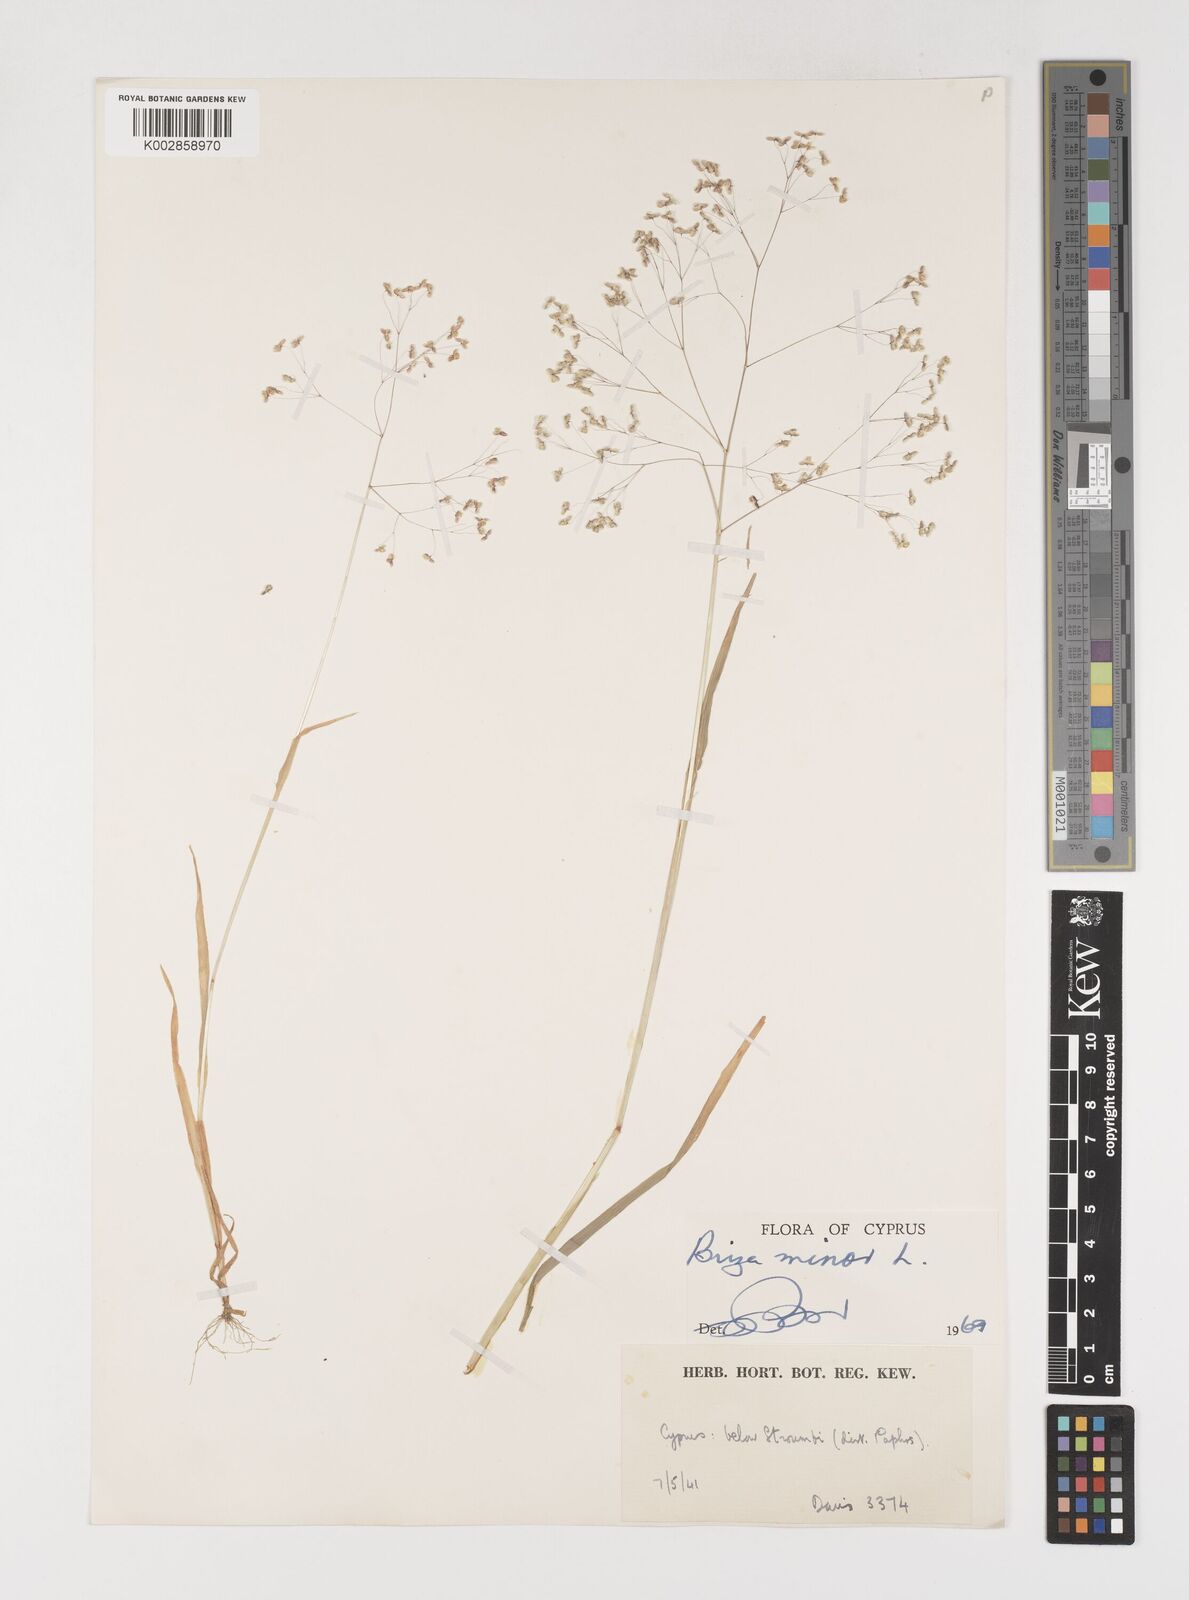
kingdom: Plantae
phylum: Tracheophyta
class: Liliopsida
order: Poales
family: Poaceae
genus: Briza
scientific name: Briza minor
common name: Lesser quaking-grass
